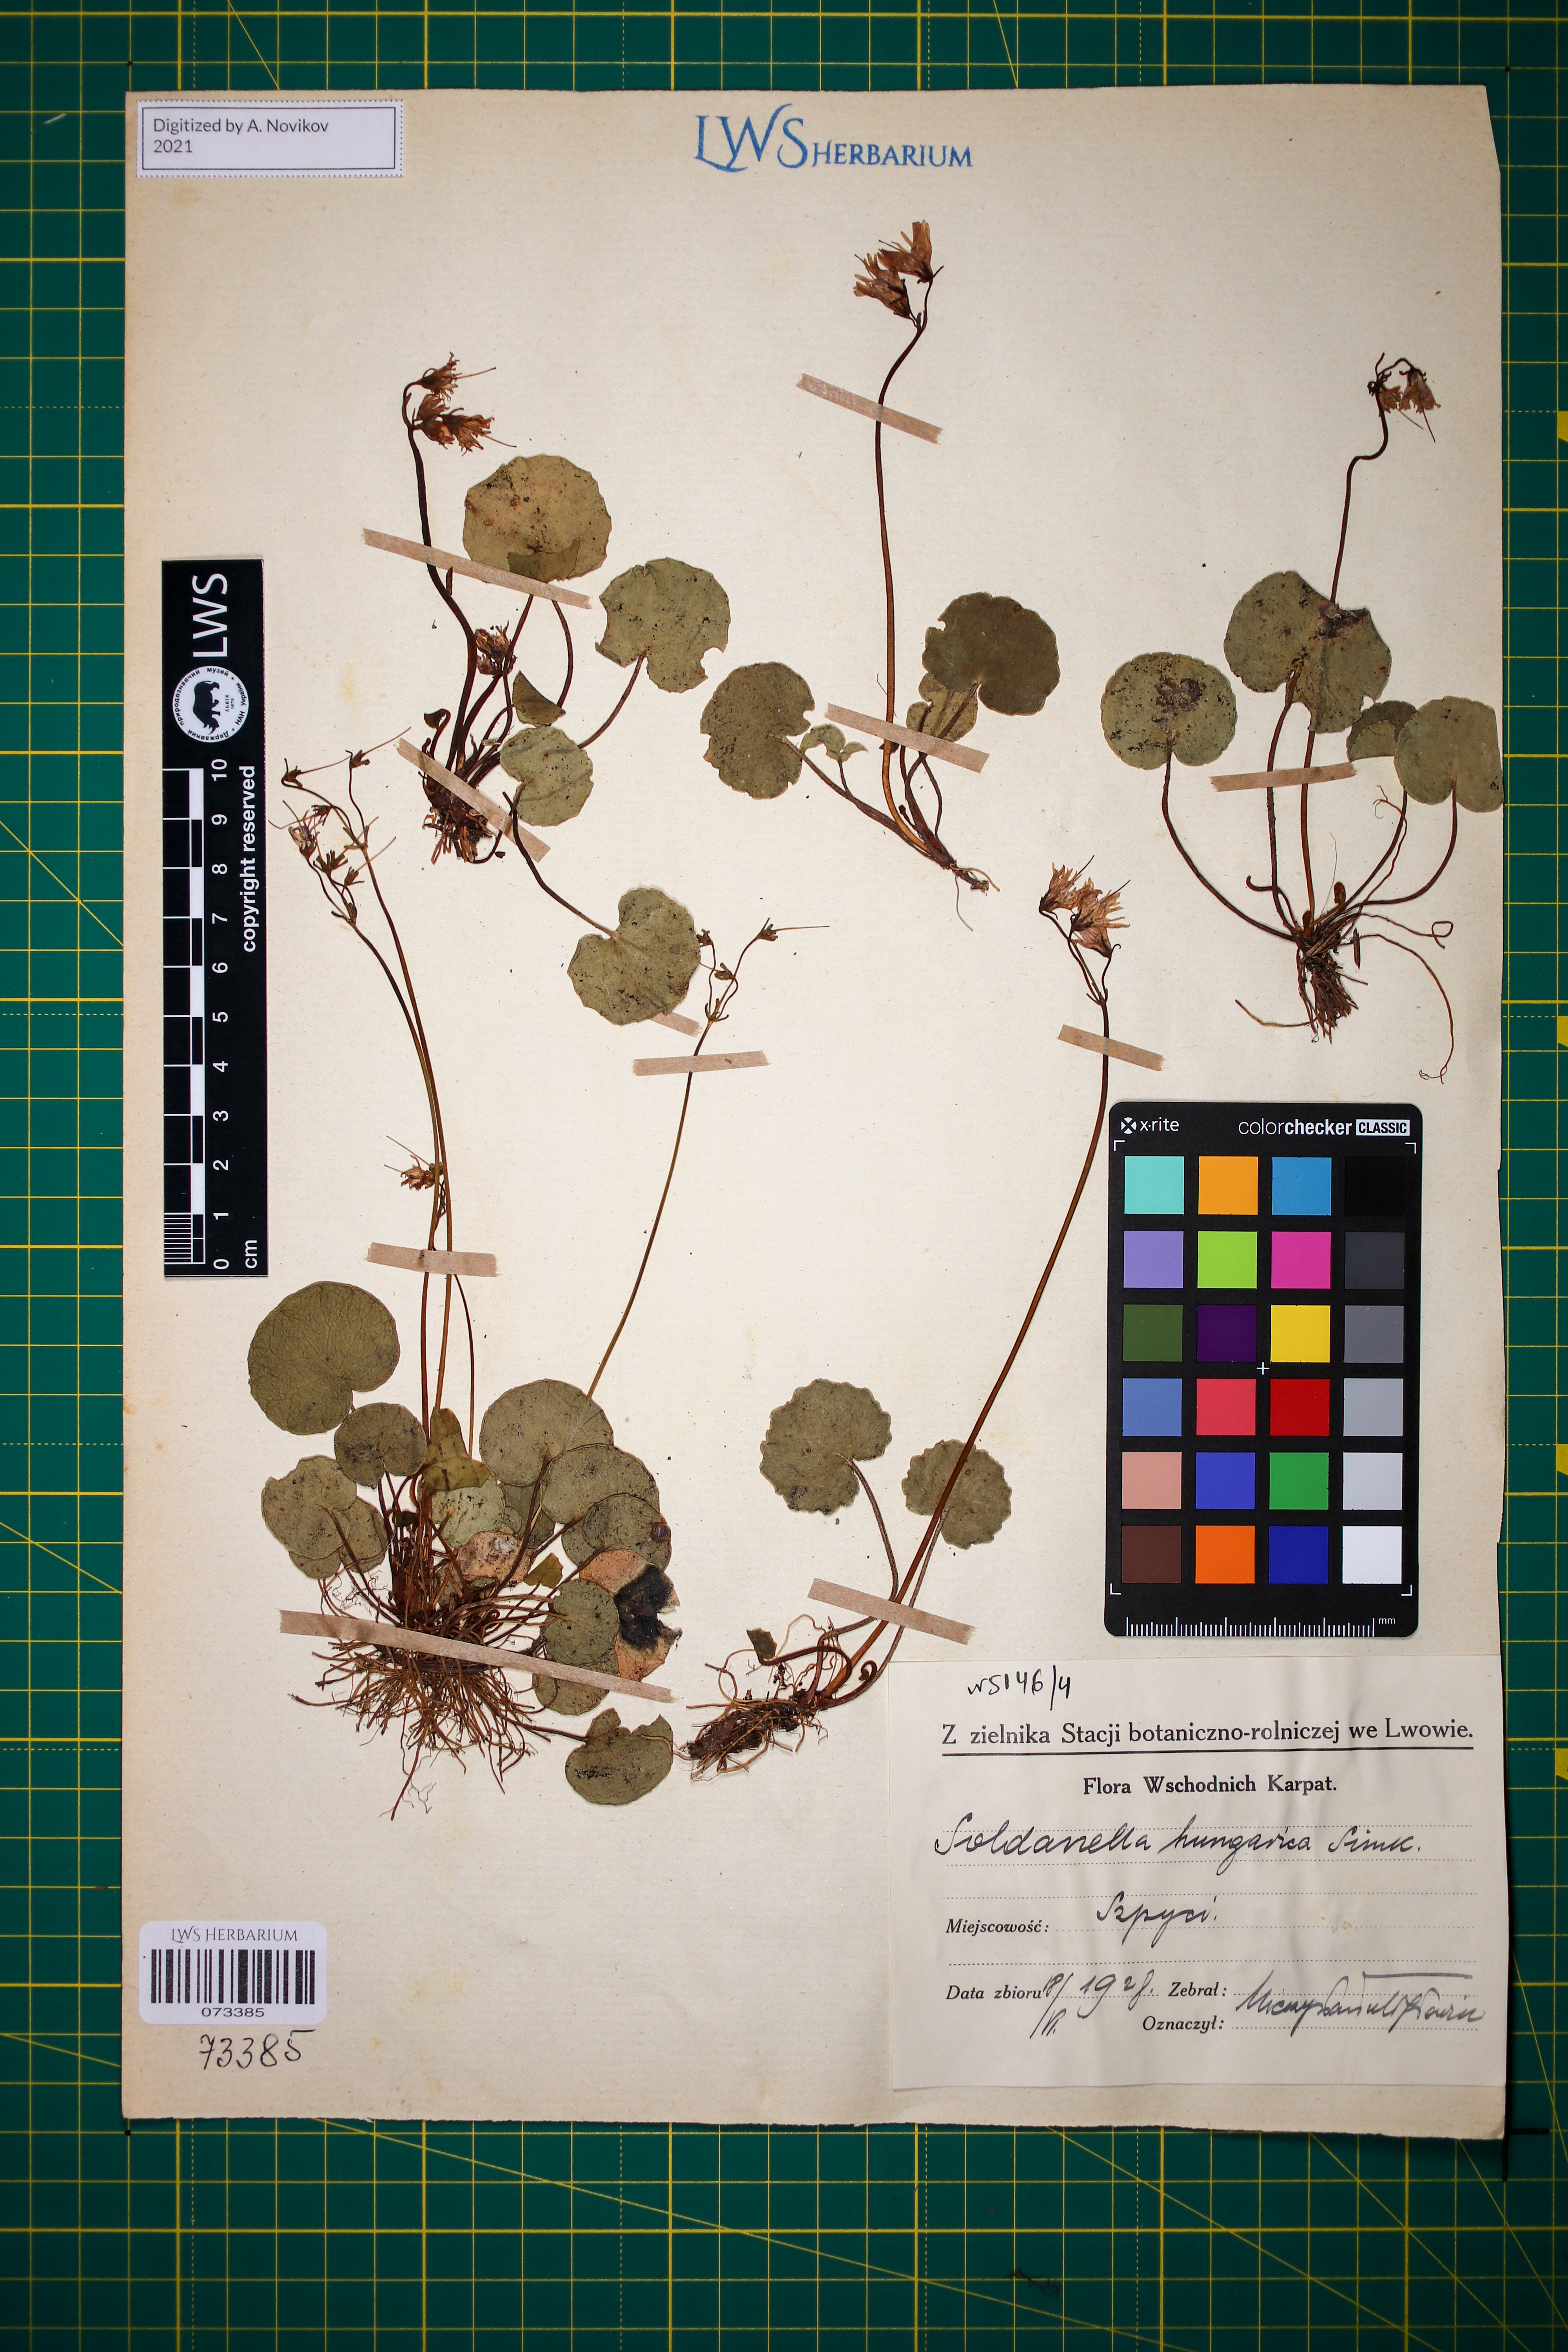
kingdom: Plantae
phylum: Tracheophyta
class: Magnoliopsida
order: Ericales
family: Primulaceae
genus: Soldanella
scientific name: Soldanella hungarica
